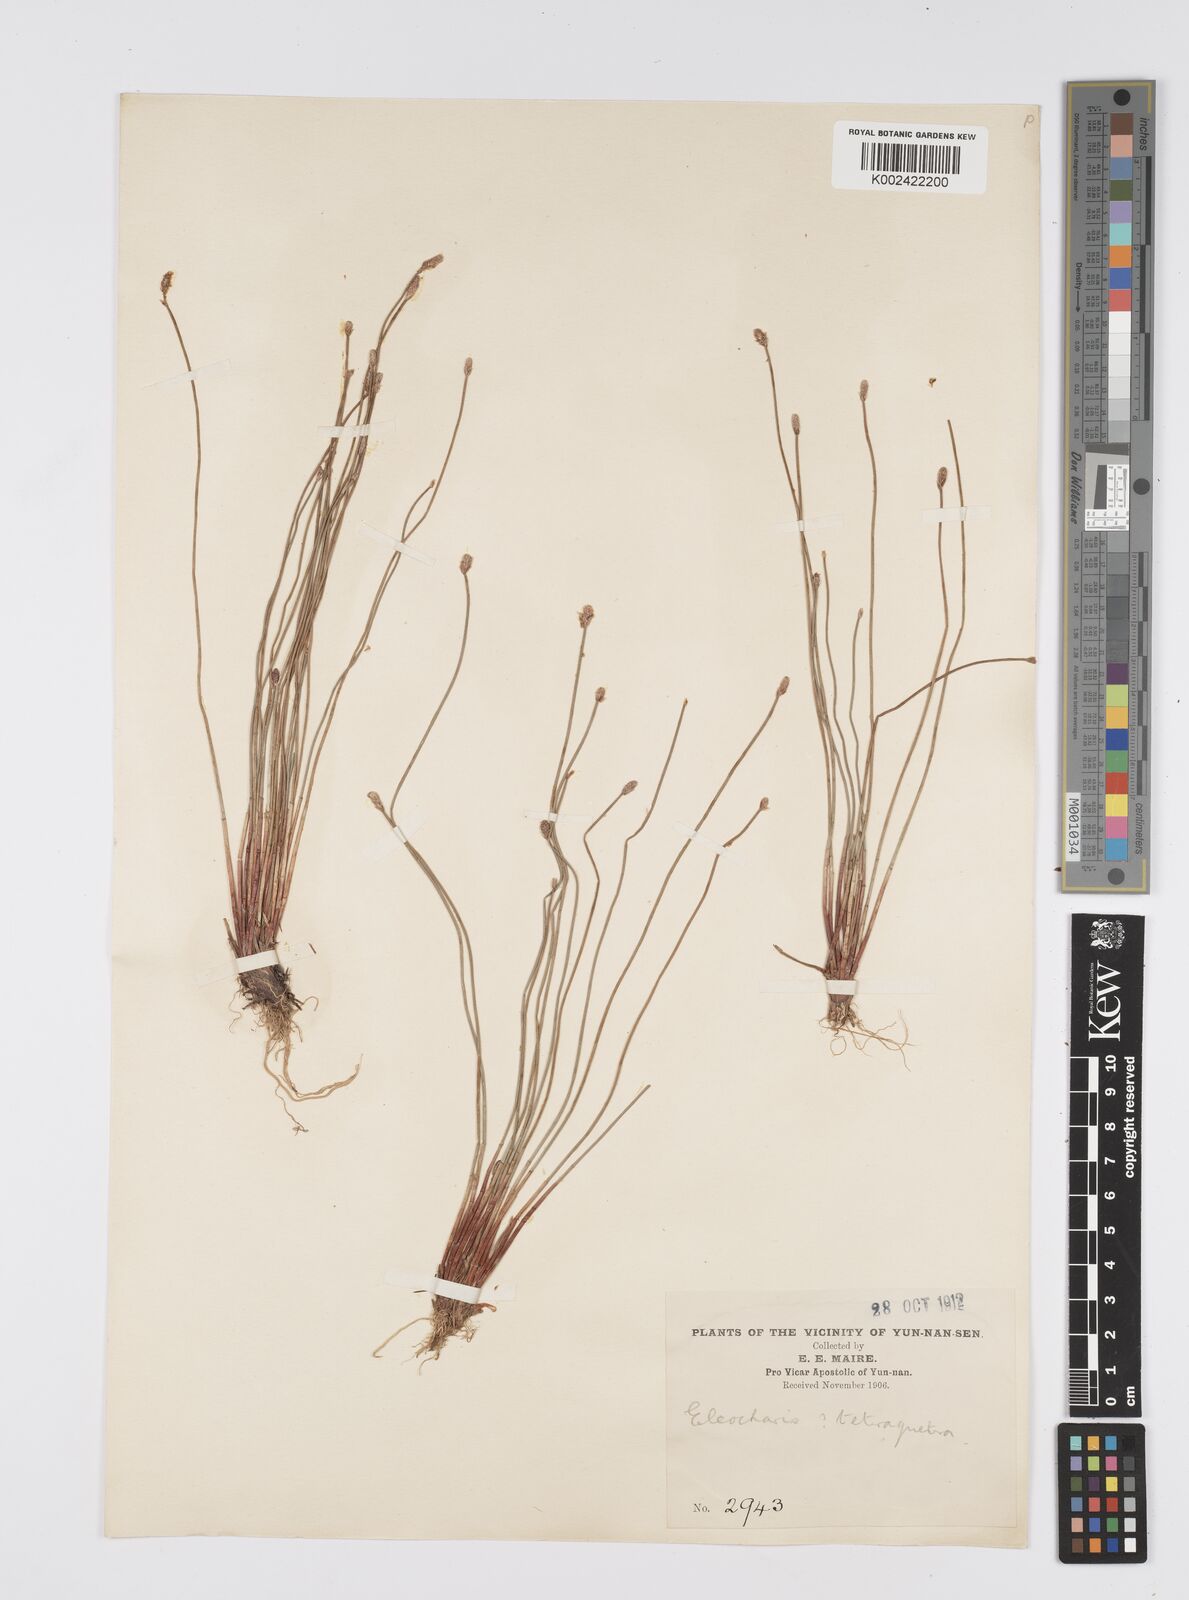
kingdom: Plantae
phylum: Tracheophyta
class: Liliopsida
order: Poales
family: Cyperaceae
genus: Eleocharis
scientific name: Eleocharis tetraquetra
